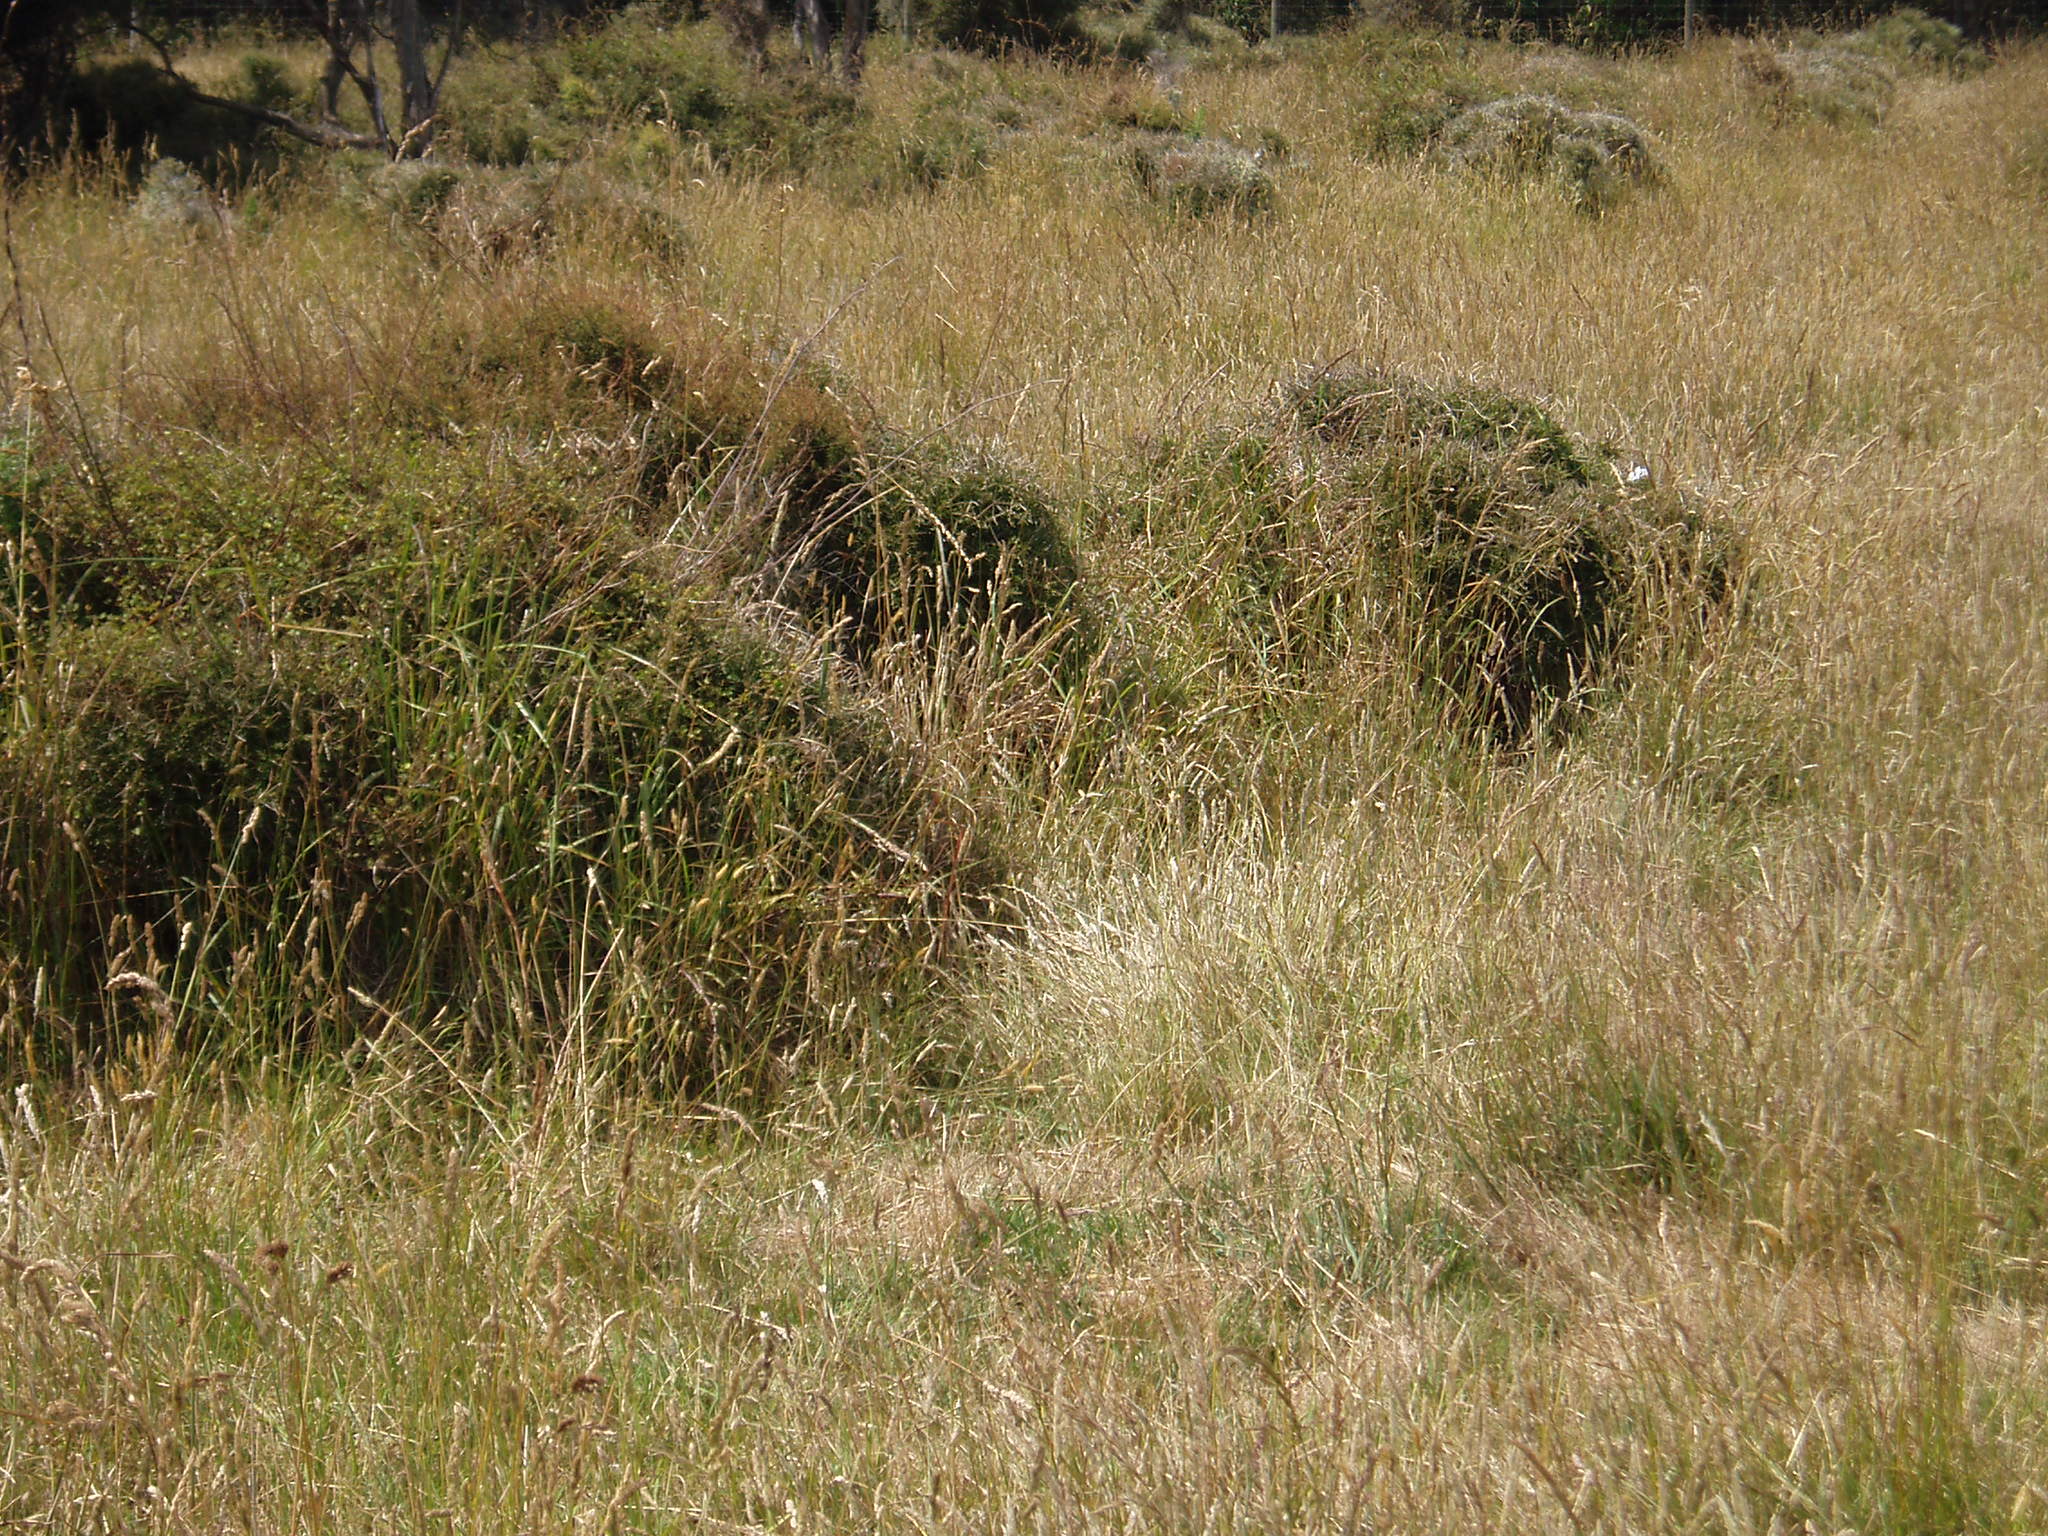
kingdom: Plantae
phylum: Tracheophyta
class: Magnoliopsida
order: Malpighiales
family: Violaceae
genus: Melicytus
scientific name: Melicytus
